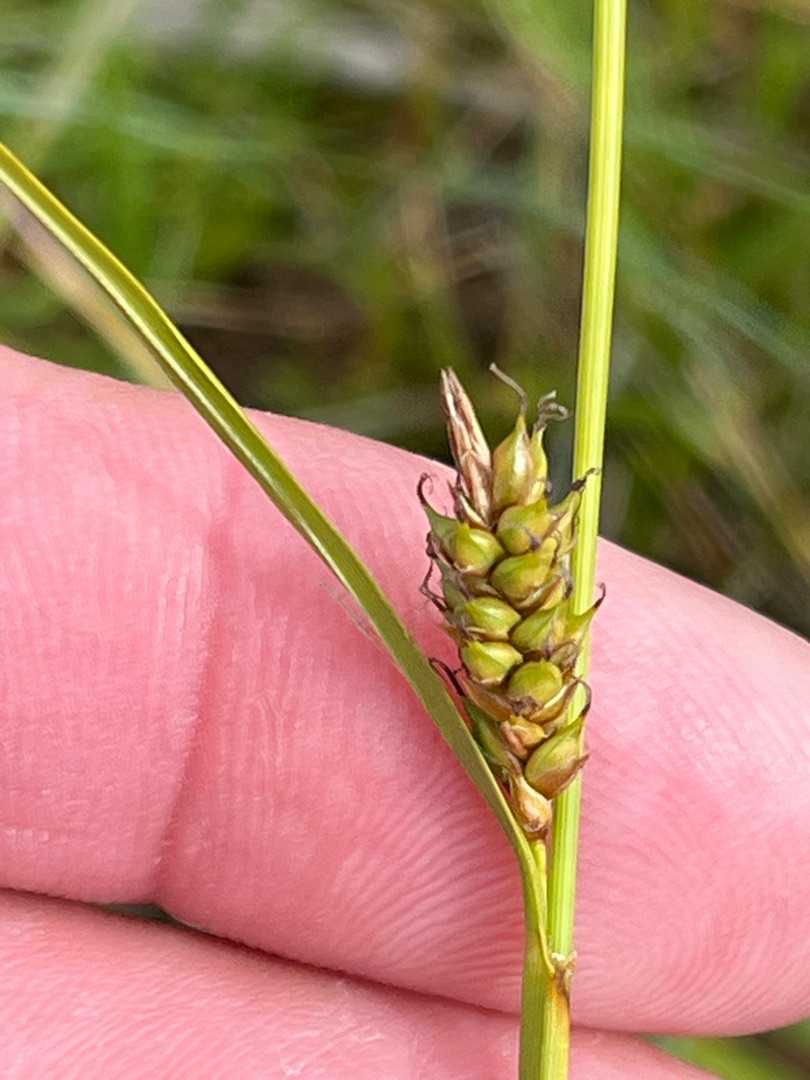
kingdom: Plantae
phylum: Tracheophyta
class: Liliopsida
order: Poales
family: Cyperaceae
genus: Carex
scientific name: Carex distans
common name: Fjernakset star
